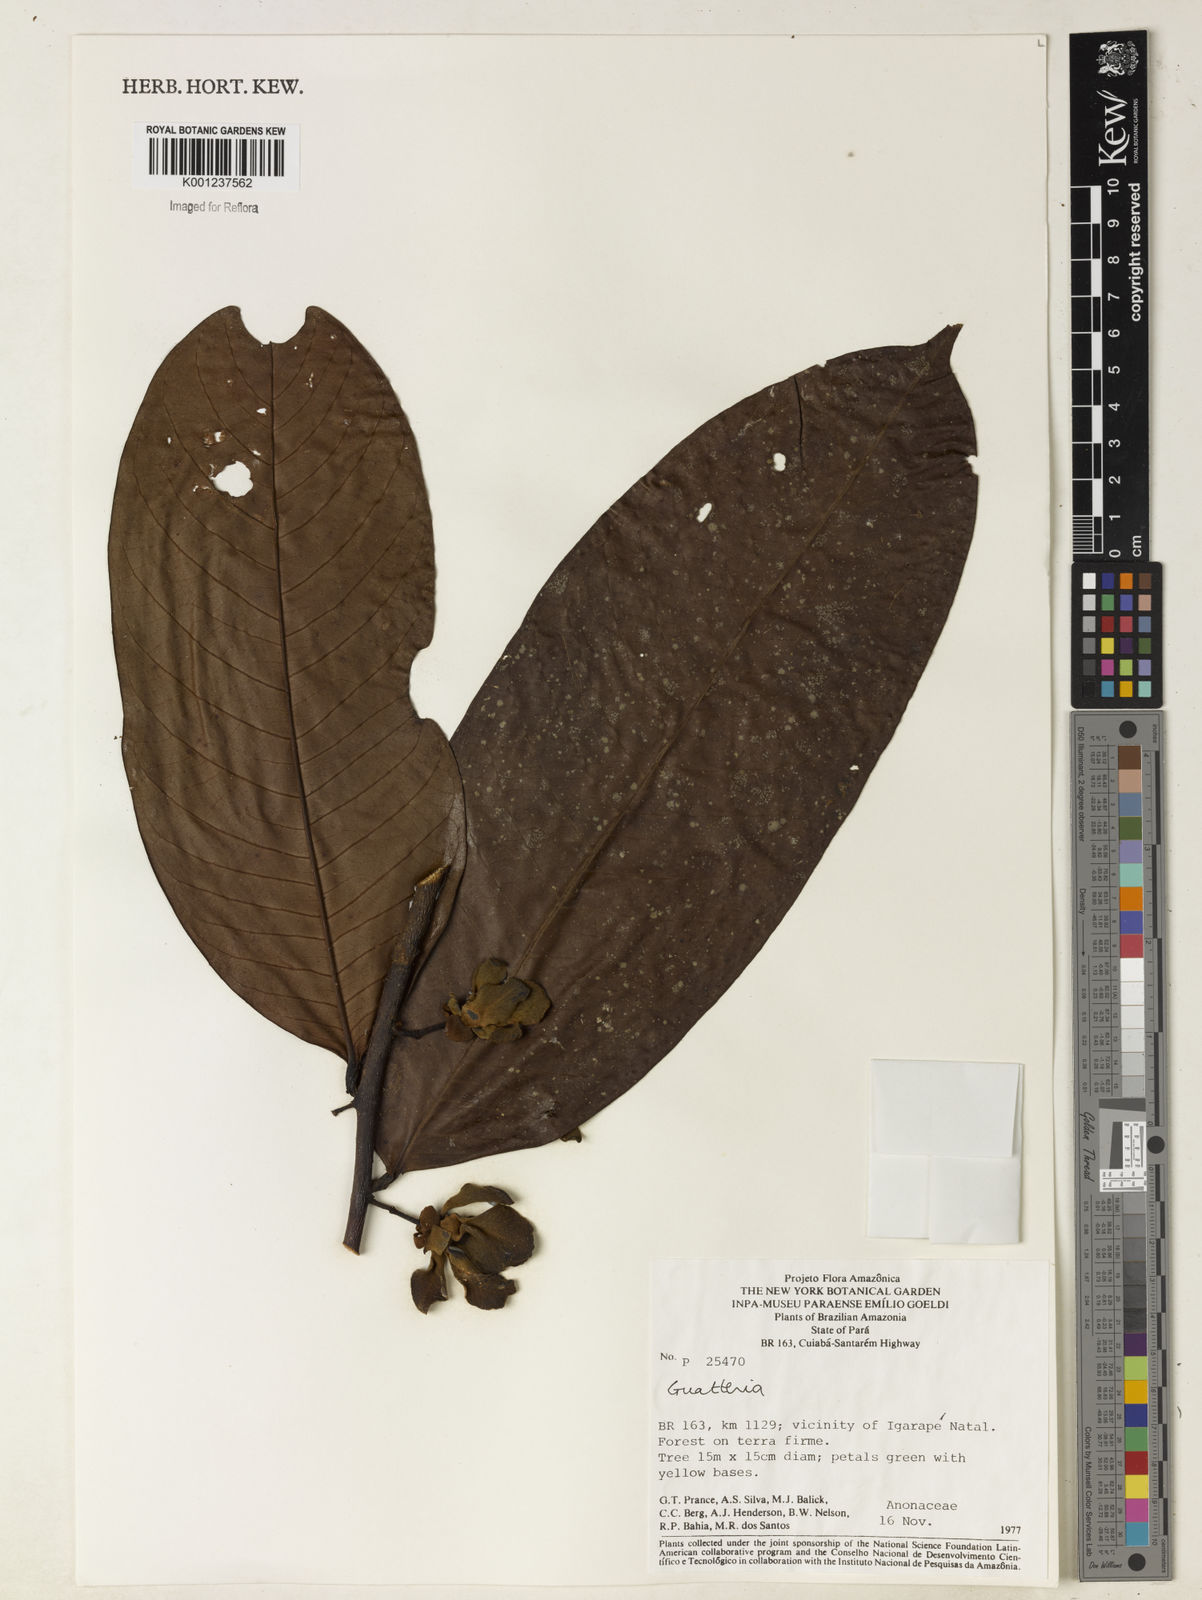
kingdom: Plantae
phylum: Tracheophyta
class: Magnoliopsida
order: Magnoliales
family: Annonaceae
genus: Guatteria
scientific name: Guatteria blepharophylla
